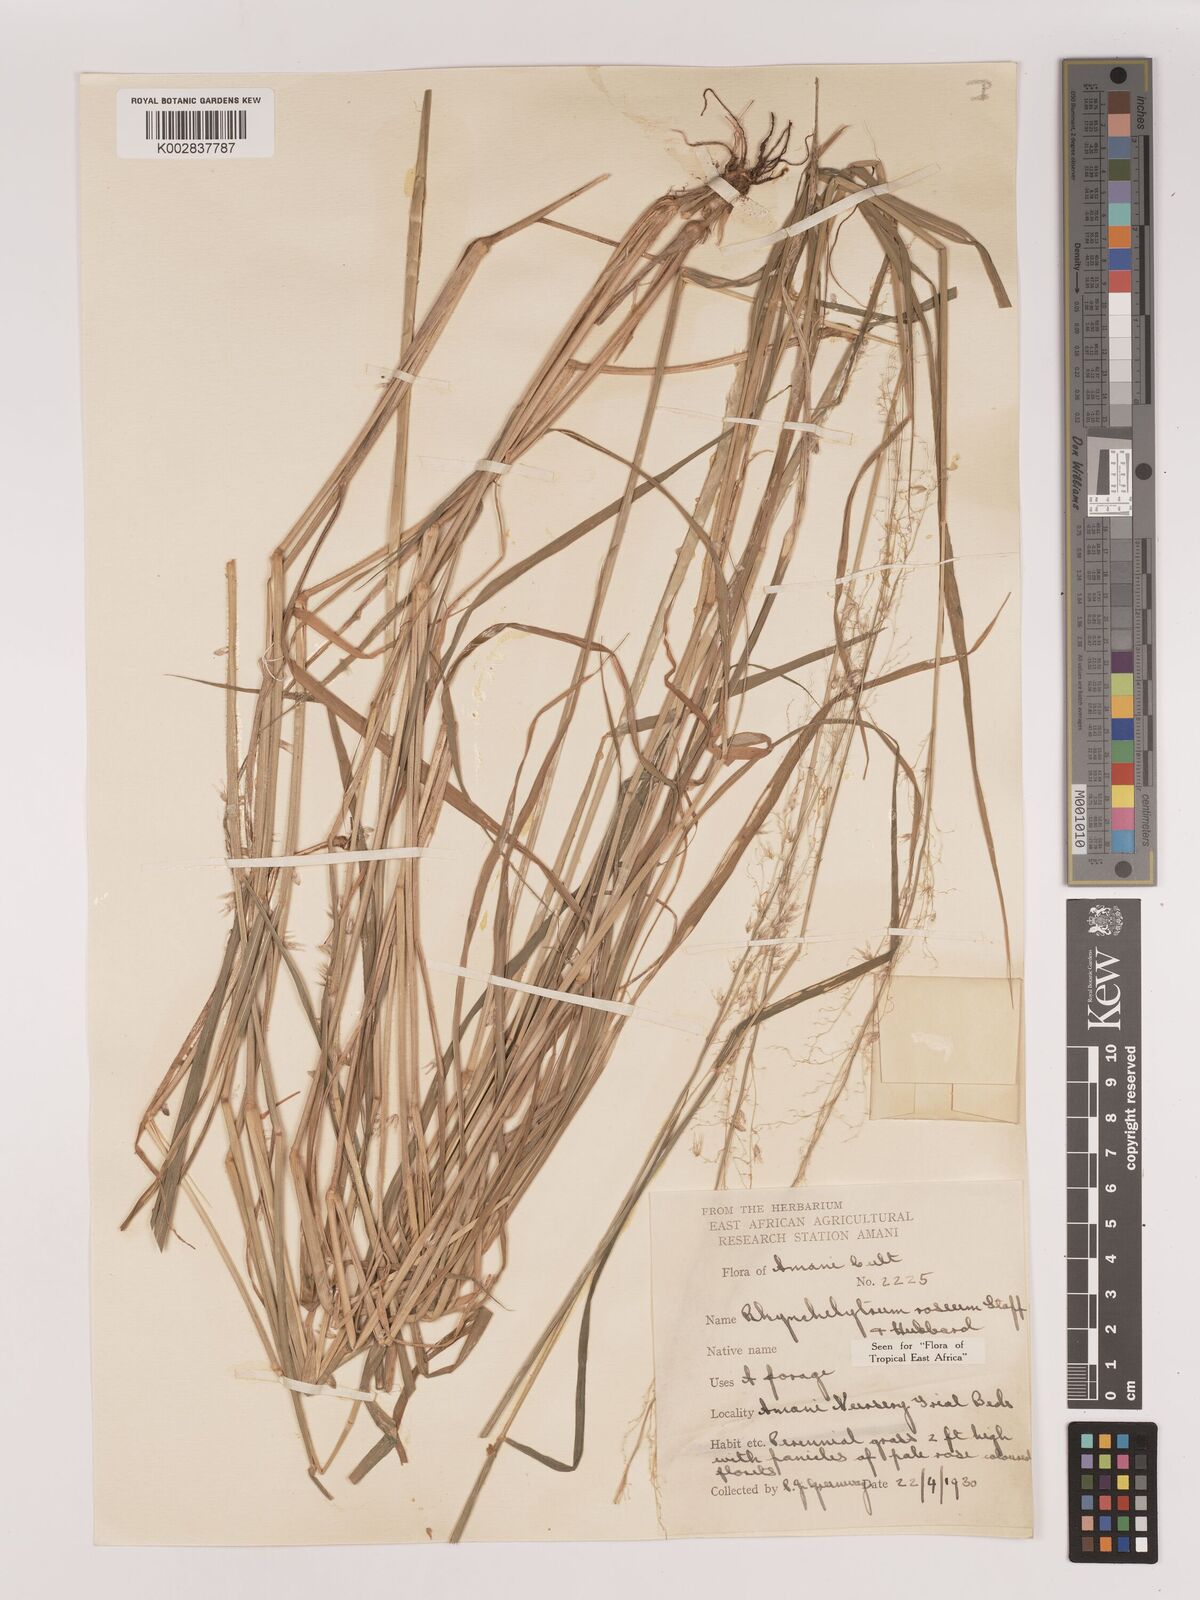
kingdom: Plantae
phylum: Tracheophyta
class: Liliopsida
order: Poales
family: Poaceae
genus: Melinis
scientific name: Melinis repens
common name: Rose natal grass
